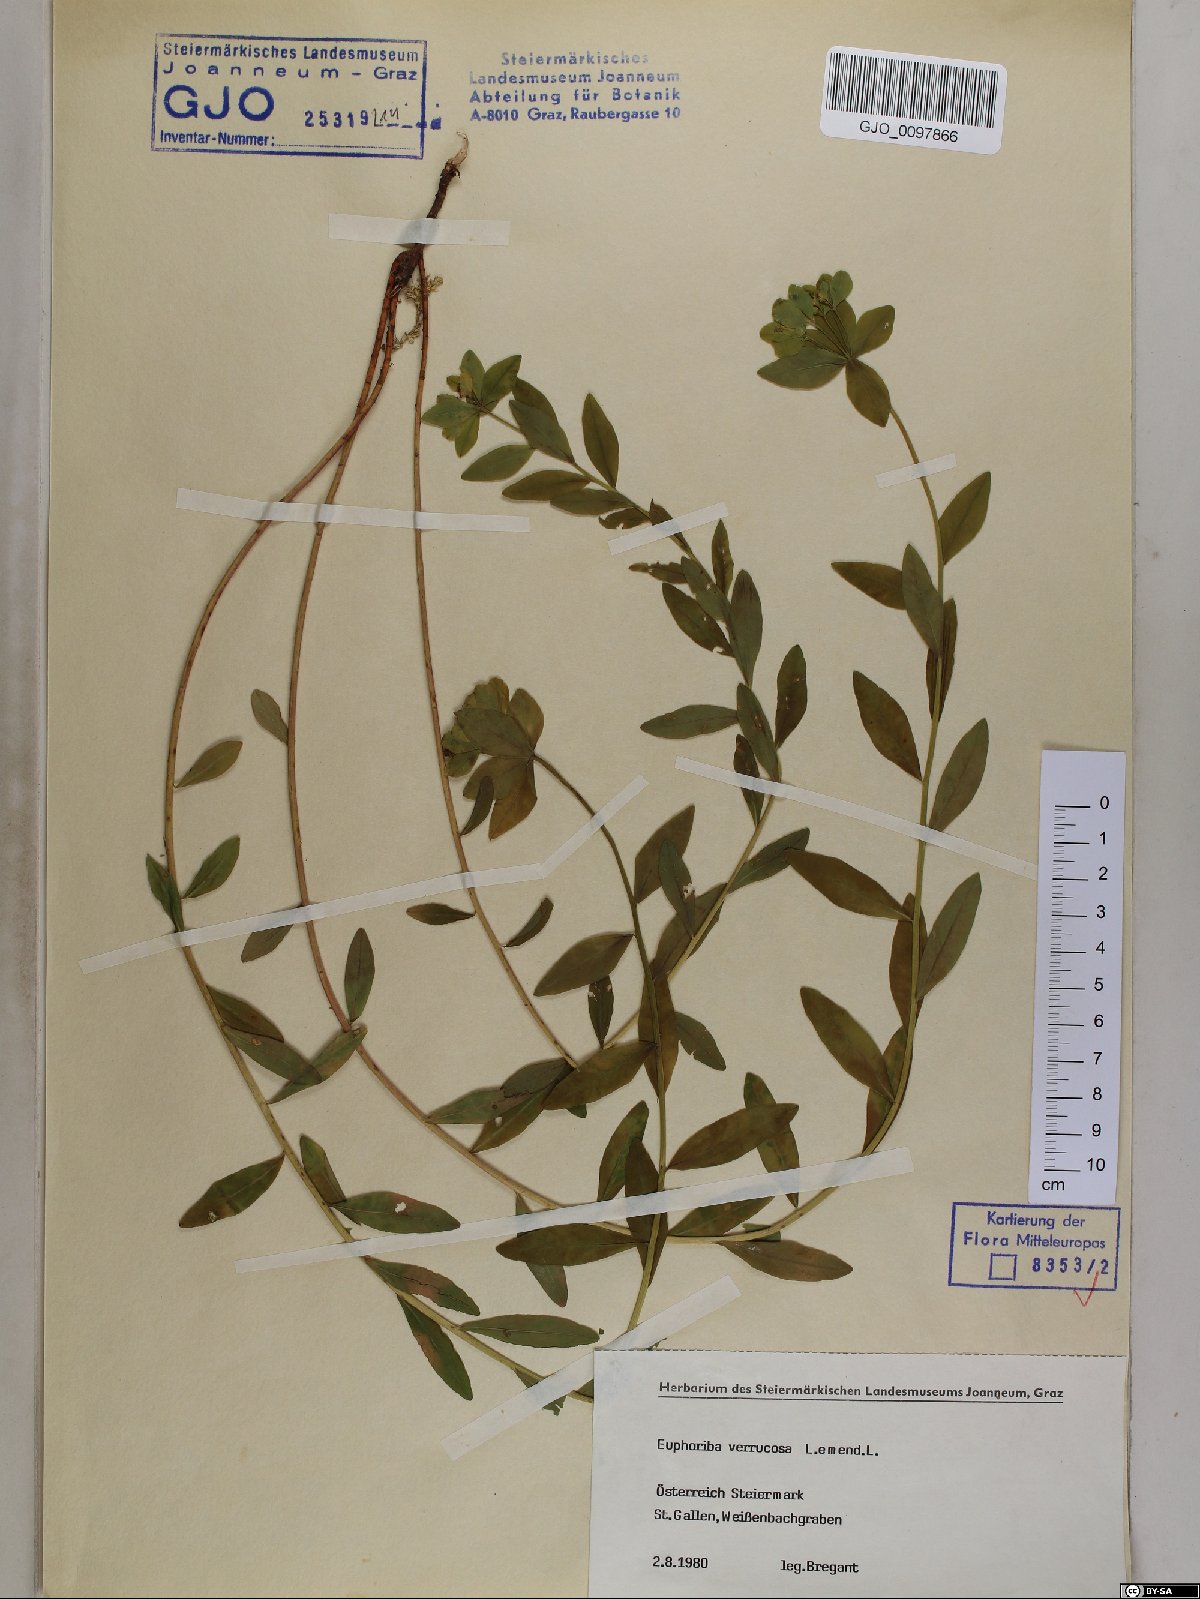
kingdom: Plantae
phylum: Tracheophyta
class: Magnoliopsida
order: Malpighiales
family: Euphorbiaceae
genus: Euphorbia
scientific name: Euphorbia verrucosa
